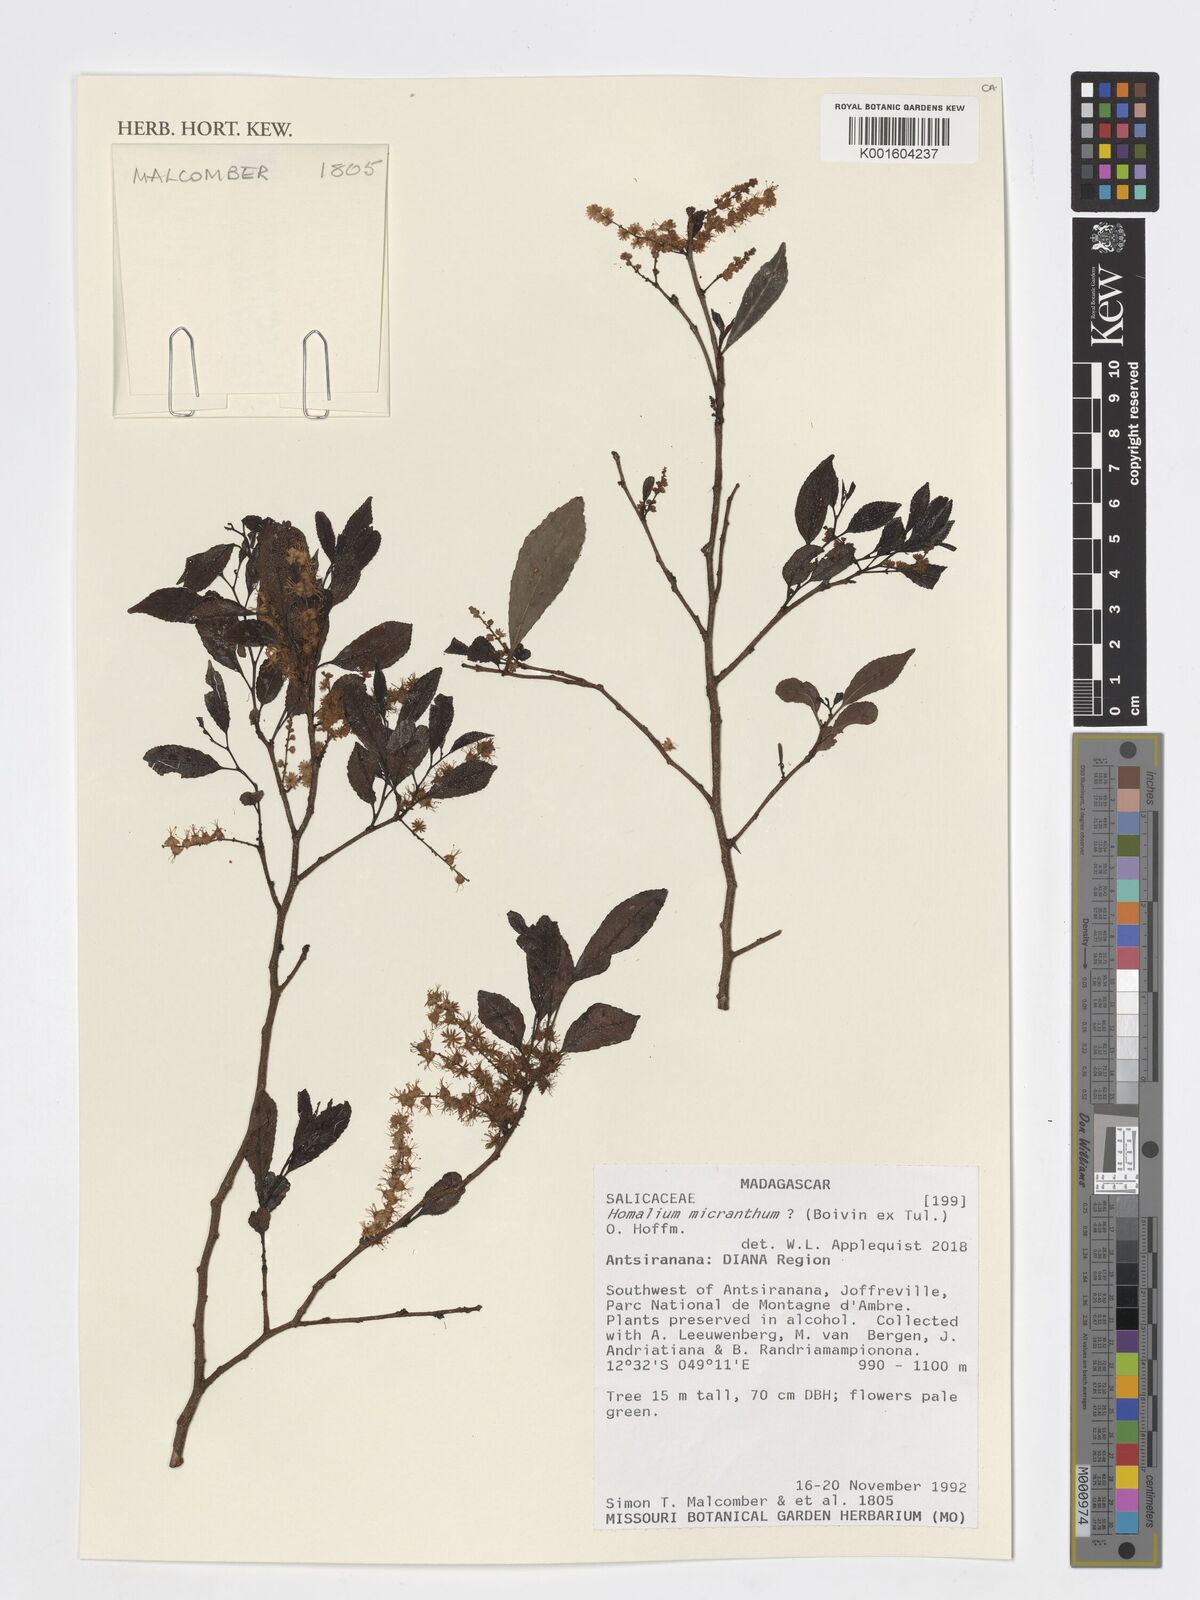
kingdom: Plantae
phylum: Tracheophyta
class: Magnoliopsida
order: Malpighiales
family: Salicaceae
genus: Homalium
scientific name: Homalium micranthum
